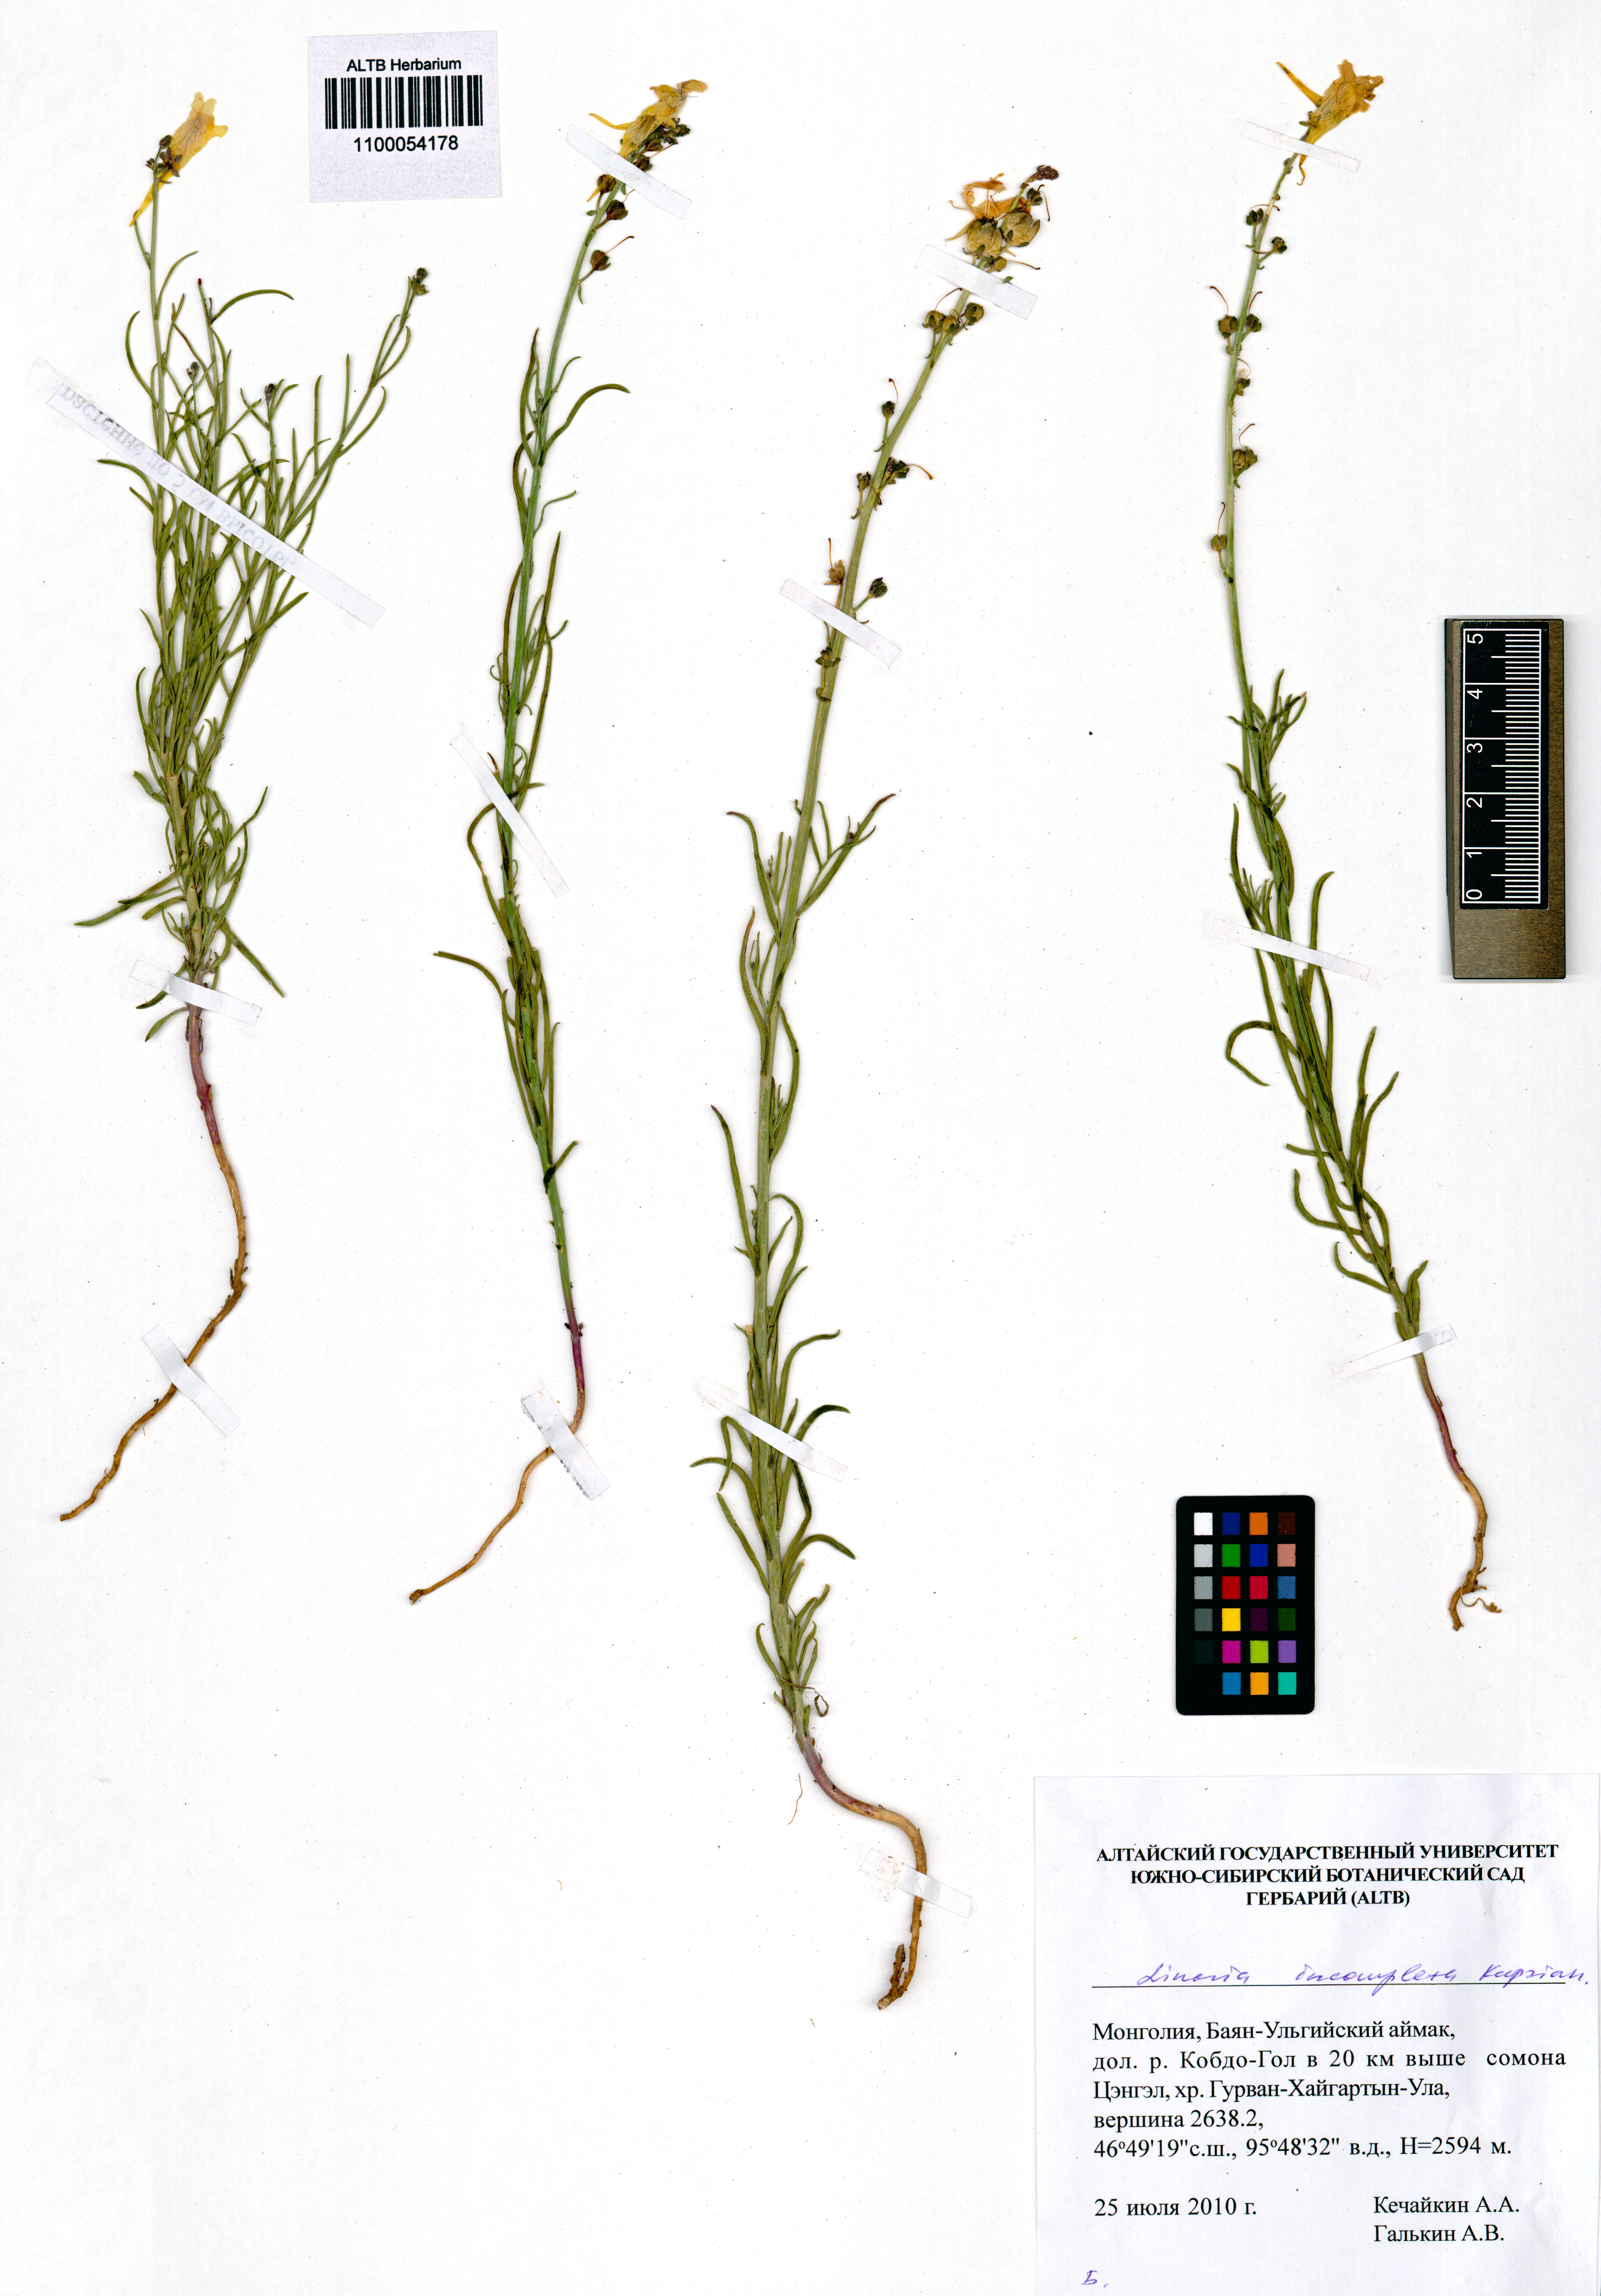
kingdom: Plantae
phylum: Tracheophyta
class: Magnoliopsida
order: Lamiales
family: Plantaginaceae
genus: Linaria
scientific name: Linaria incompleta
